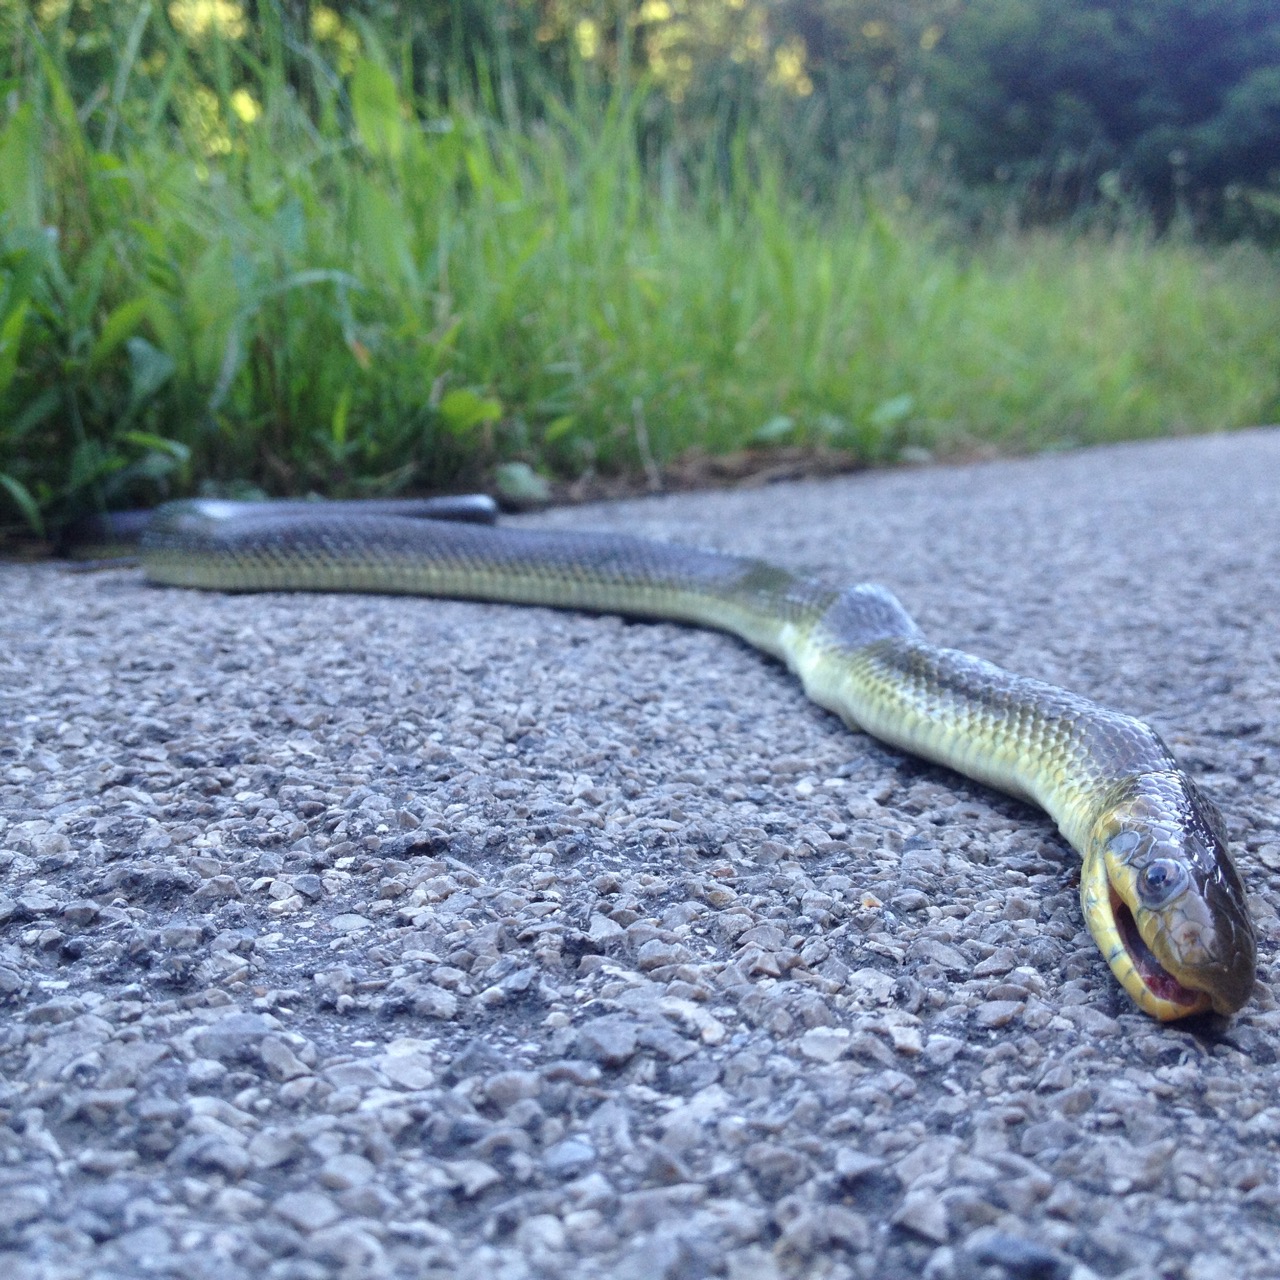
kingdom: Animalia
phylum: Chordata
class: Squamata
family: Colubridae
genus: Zamenis
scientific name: Zamenis longissimus
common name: Aesculapean snake
